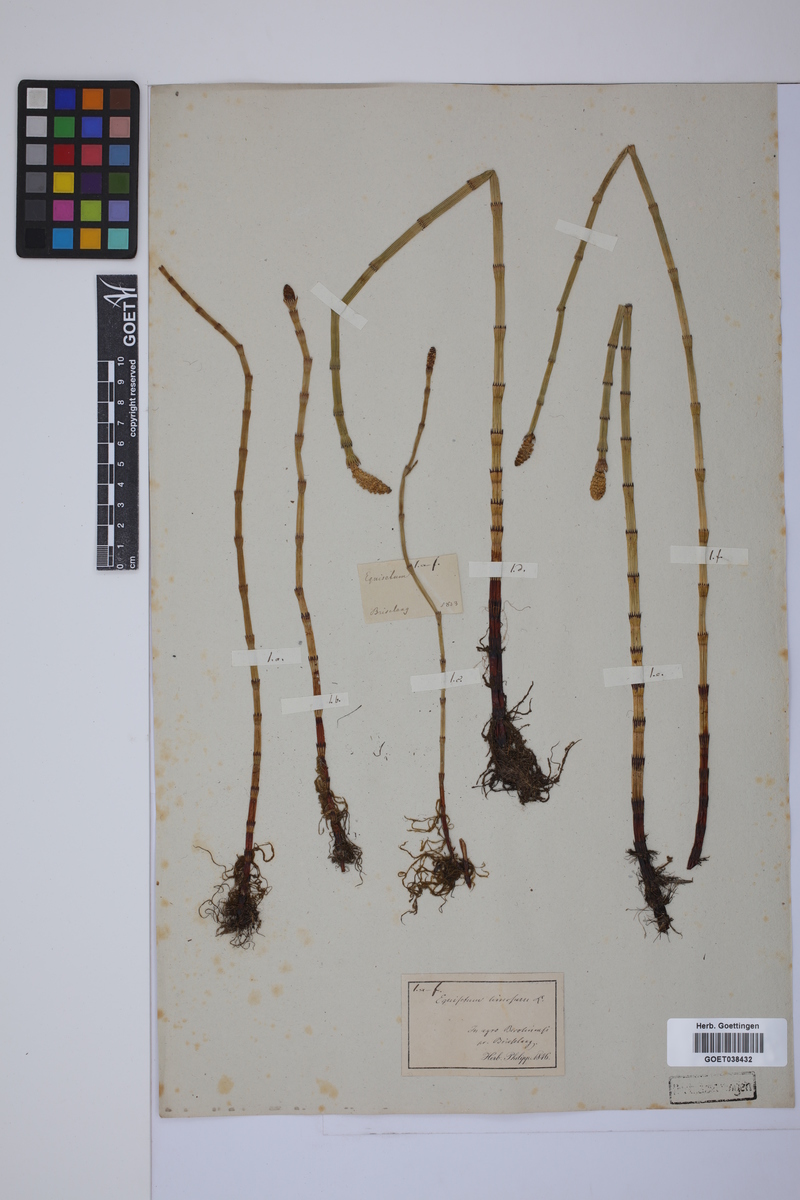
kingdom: Plantae
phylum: Tracheophyta
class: Polypodiopsida
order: Equisetales
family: Equisetaceae
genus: Equisetum
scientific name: Equisetum fluviatile
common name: Water horsetail
